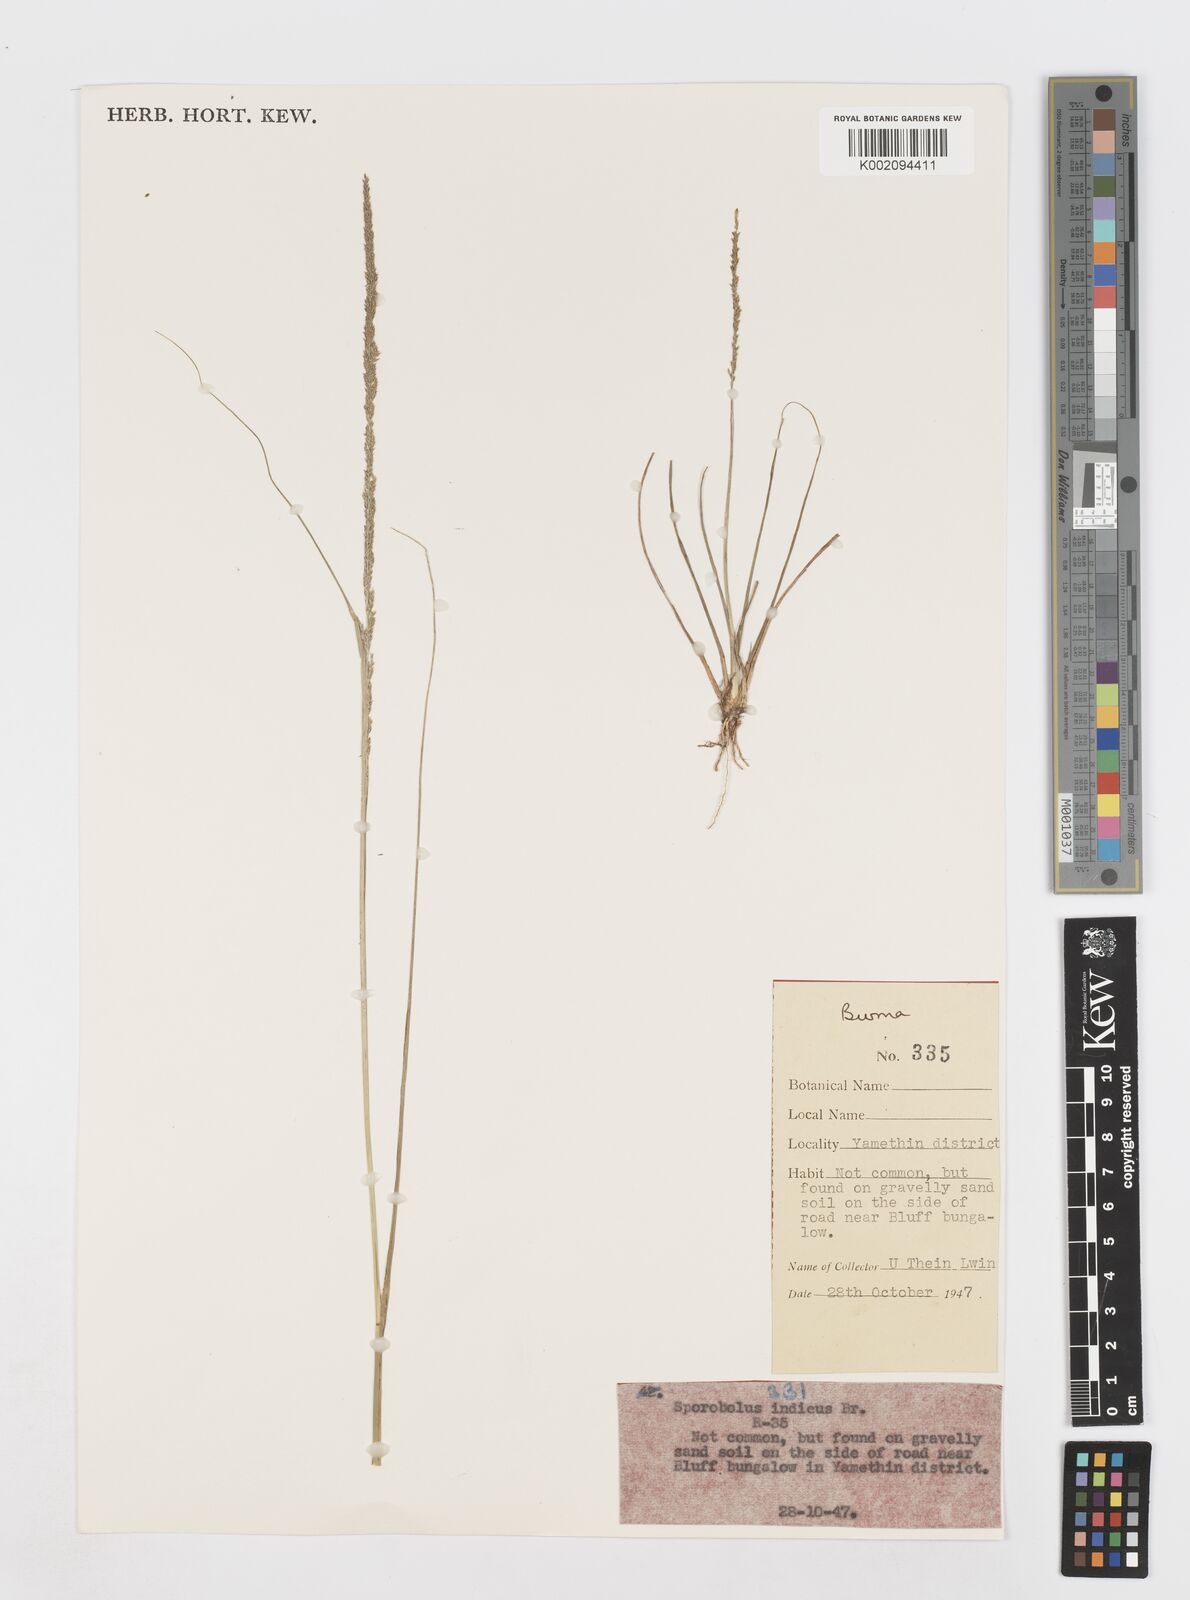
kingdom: Plantae
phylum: Tracheophyta
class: Liliopsida
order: Poales
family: Poaceae
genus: Sporobolus
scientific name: Sporobolus fertilis
